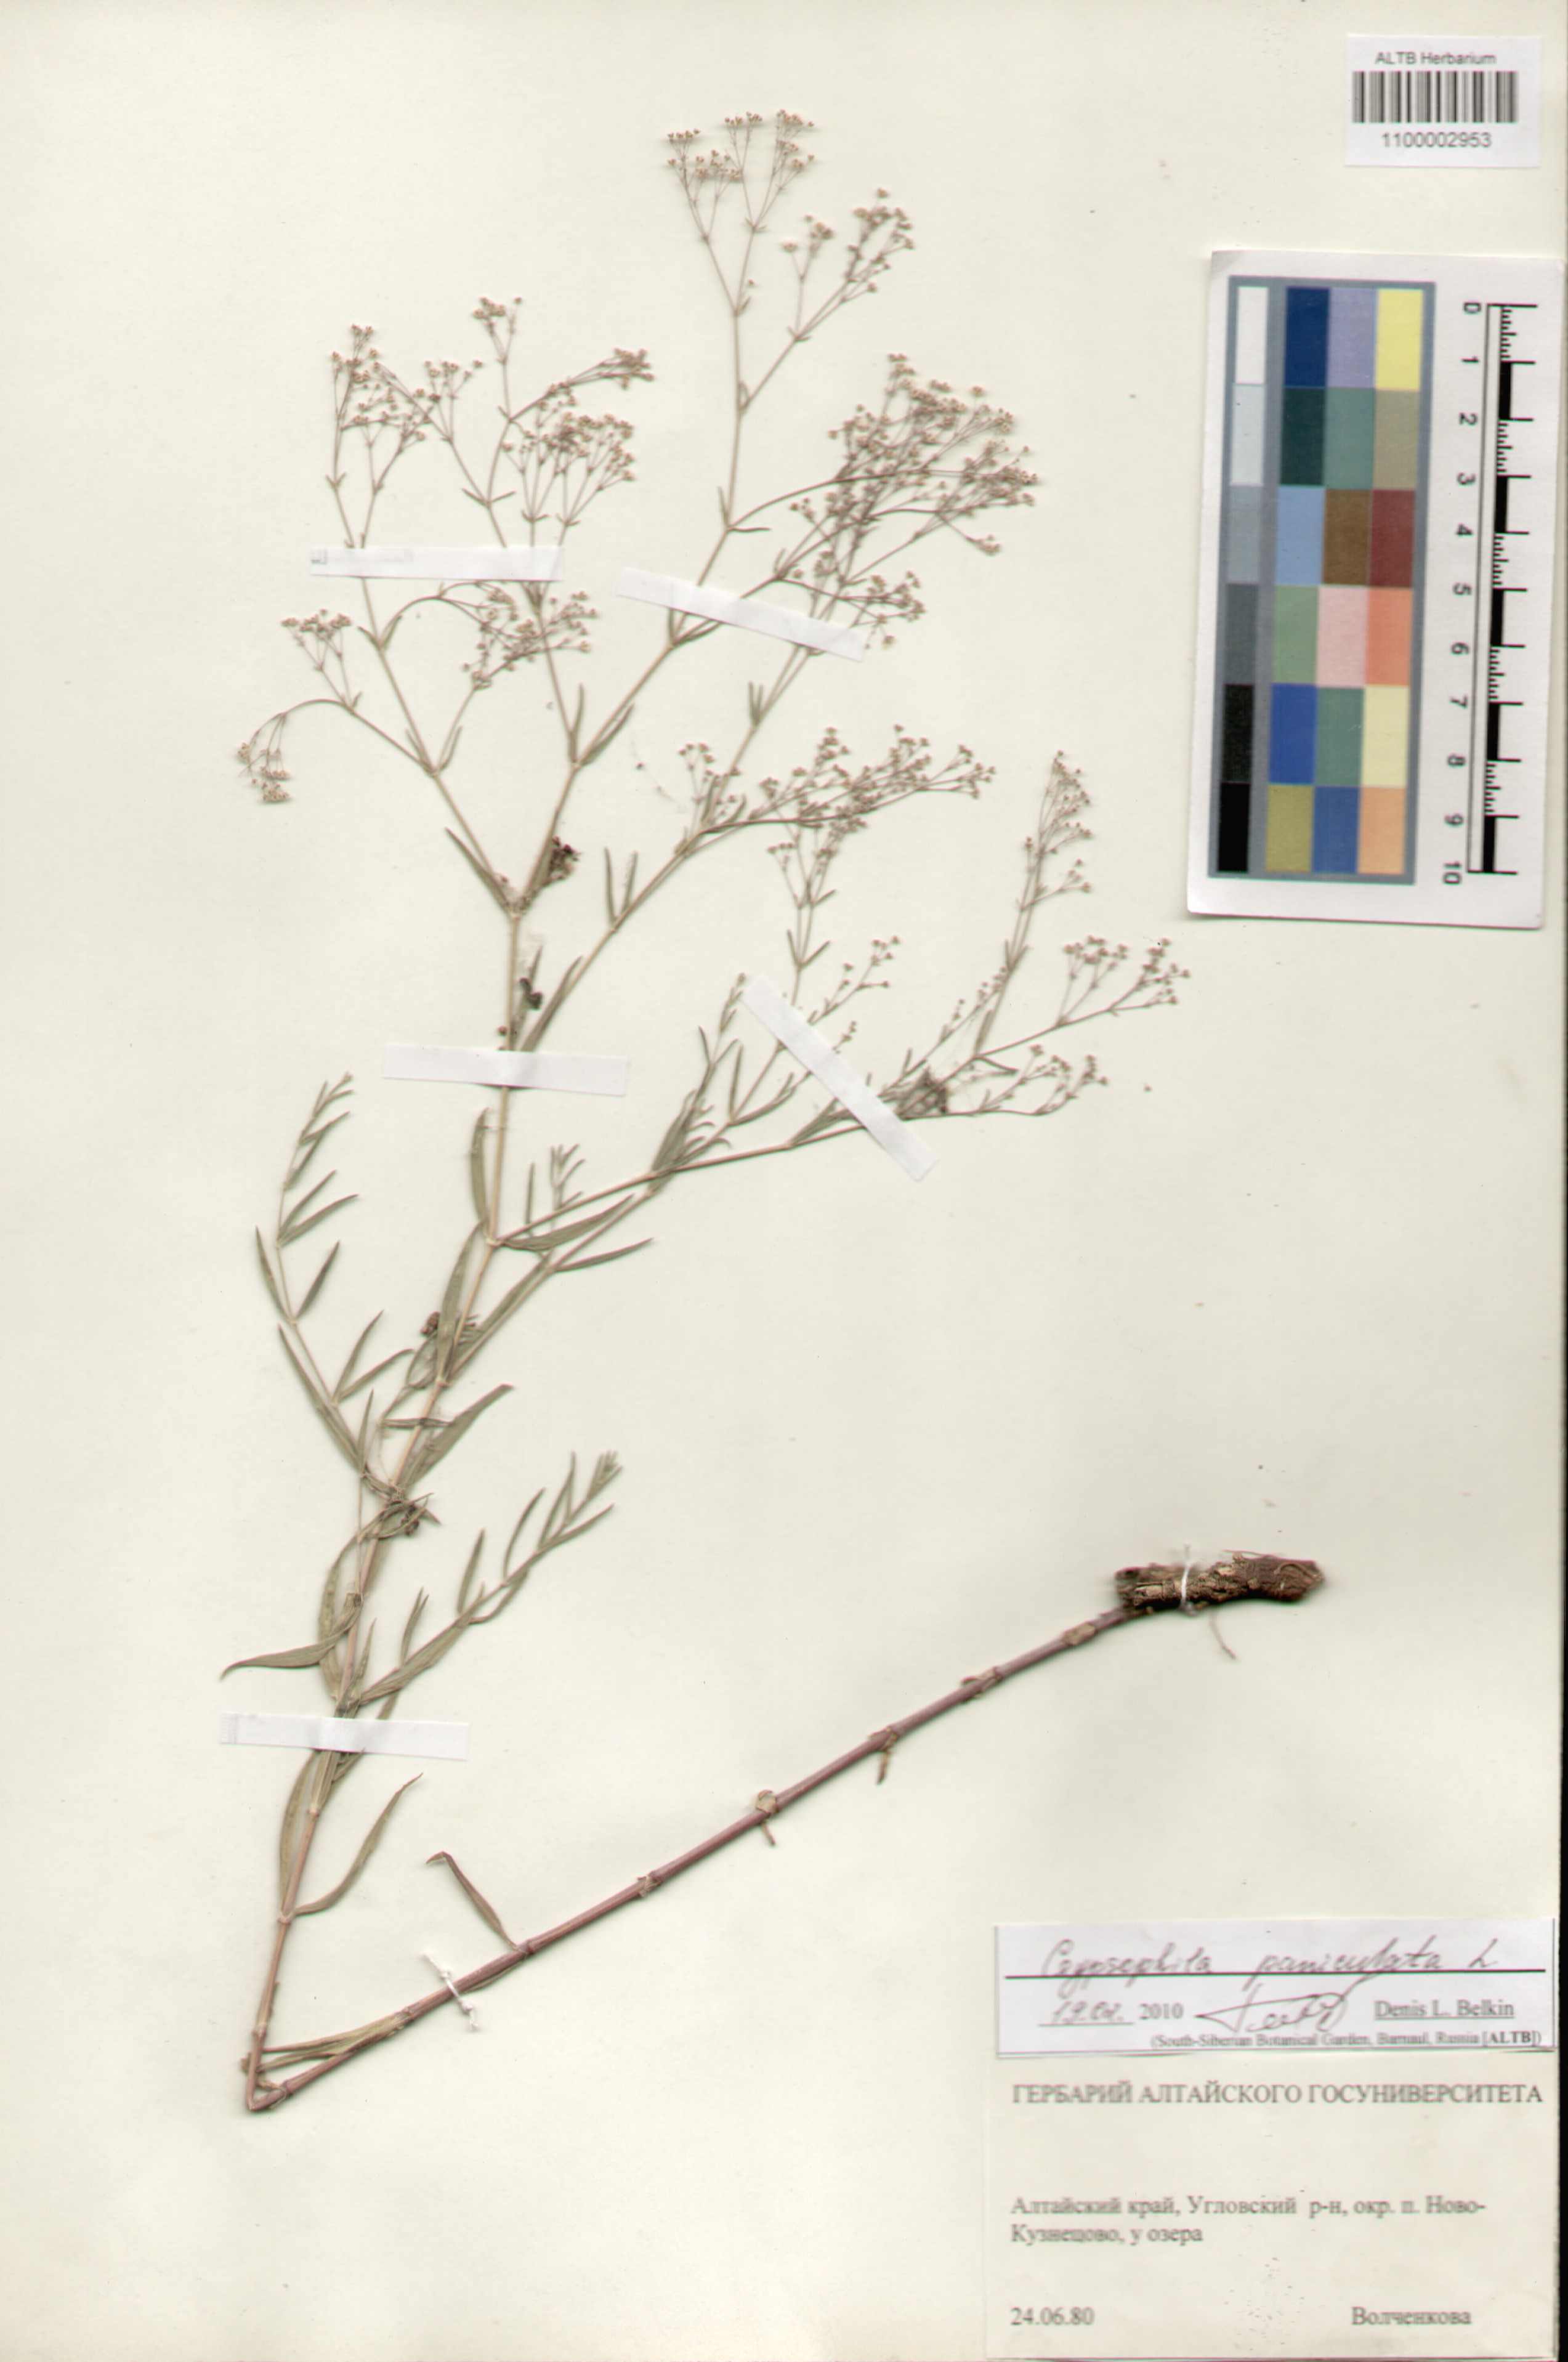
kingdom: Plantae
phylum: Tracheophyta
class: Magnoliopsida
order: Caryophyllales
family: Caryophyllaceae
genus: Gypsophila
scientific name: Gypsophila paniculata
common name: Baby's-breath
